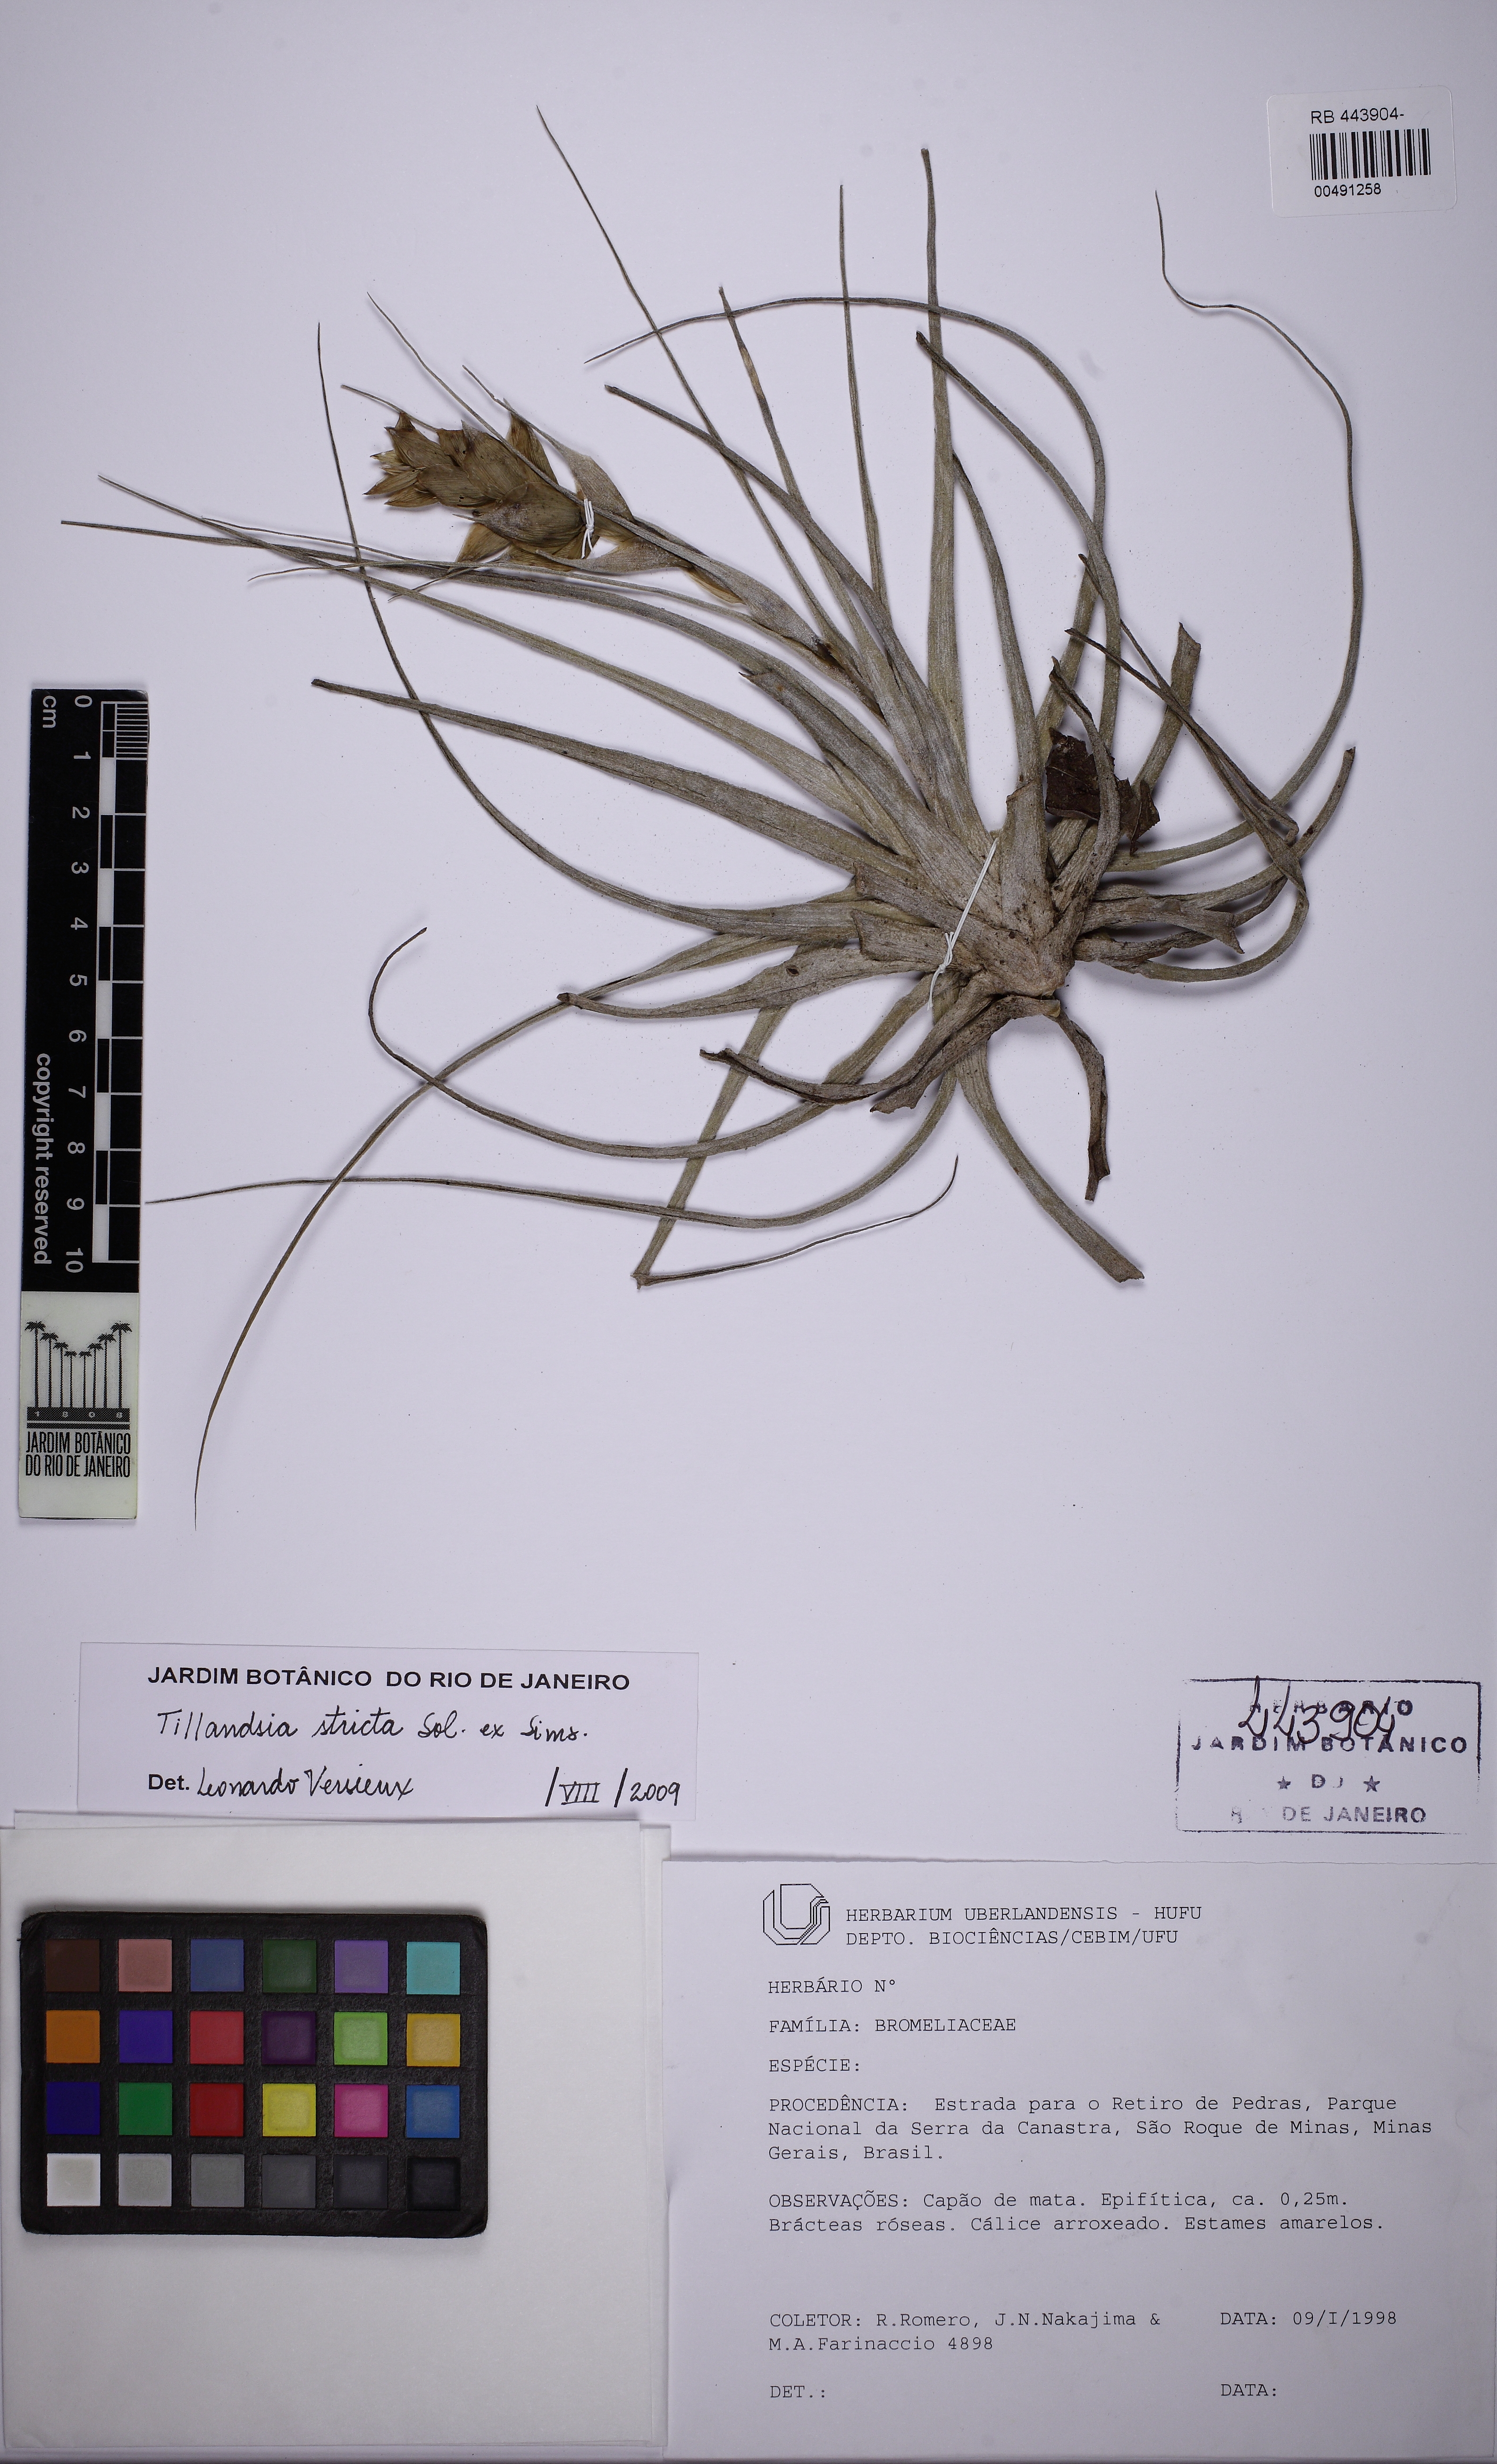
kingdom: Plantae
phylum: Tracheophyta
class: Liliopsida
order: Poales
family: Bromeliaceae
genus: Tillandsia
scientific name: Tillandsia stricta
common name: Airplant
